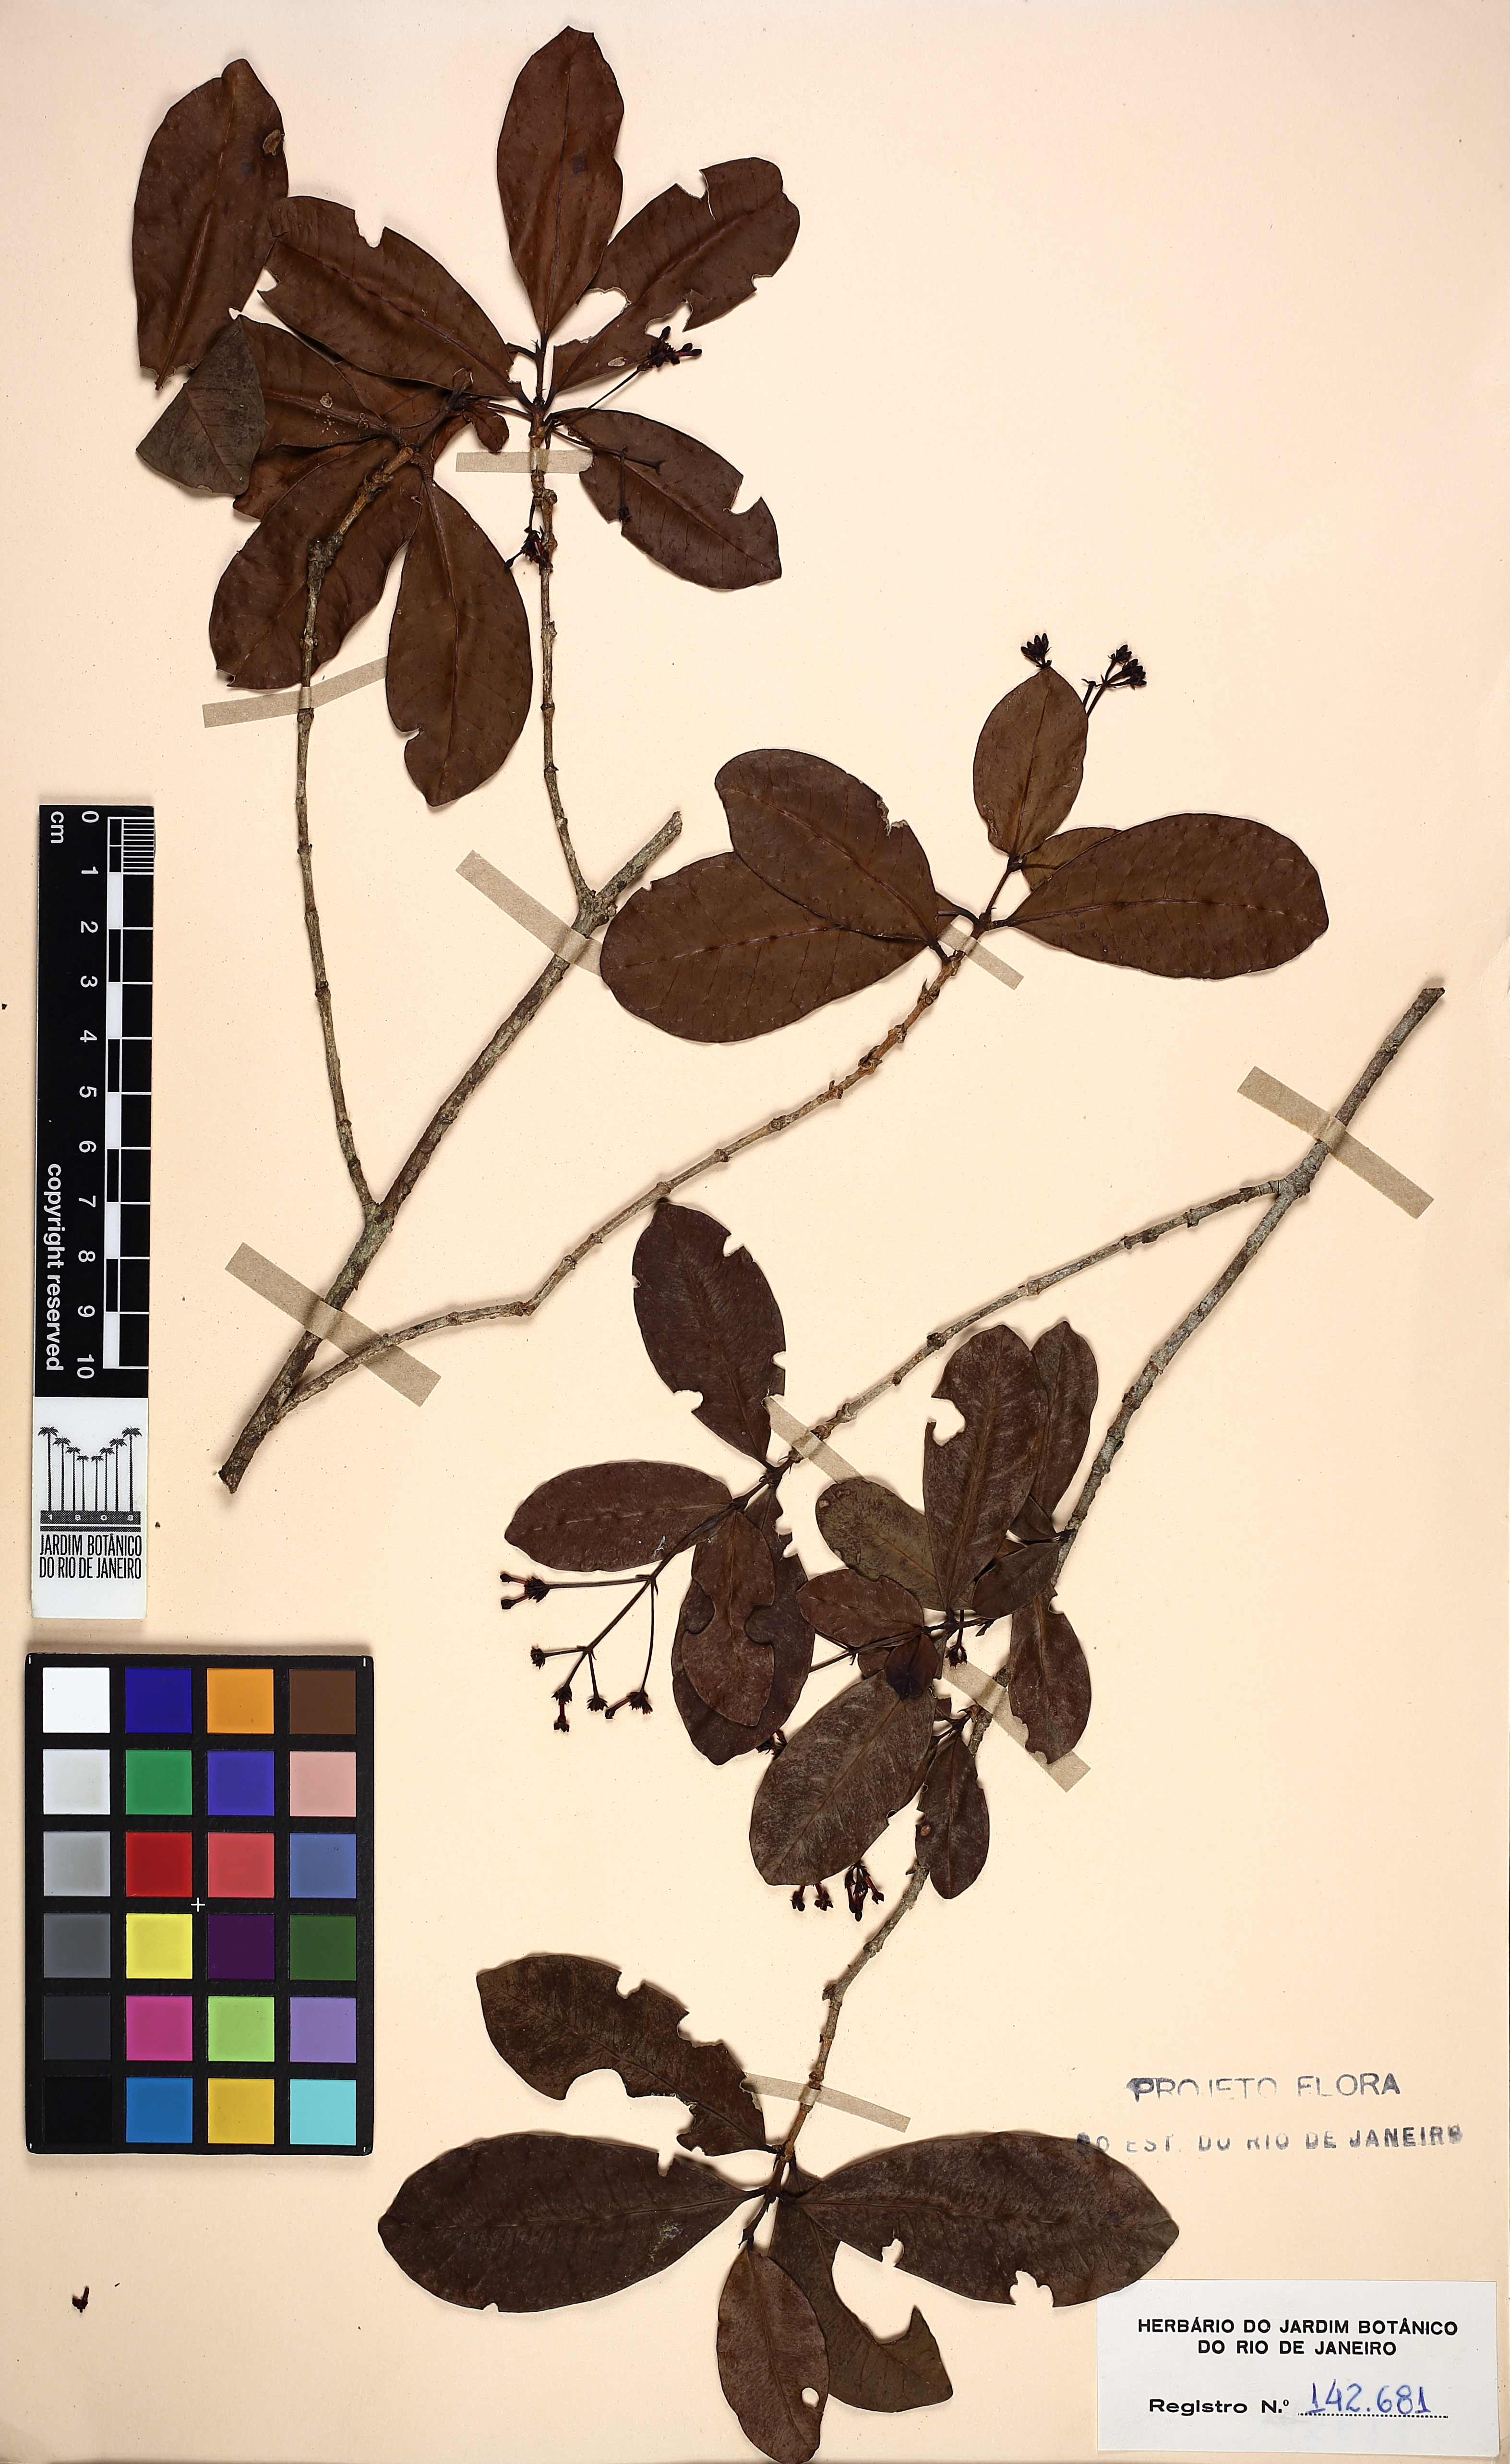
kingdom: Plantae
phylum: Tracheophyta
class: Magnoliopsida
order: Gentianales
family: Rubiaceae
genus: Ixora
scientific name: Ixora gardneriana
